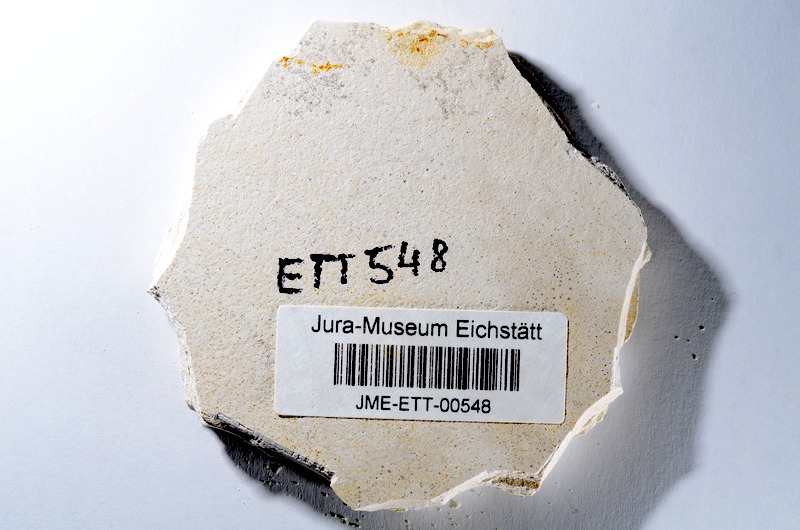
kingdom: Animalia
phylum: Chordata
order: Salmoniformes
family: Orthogonikleithridae
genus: Orthogonikleithrus
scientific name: Orthogonikleithrus hoelli
